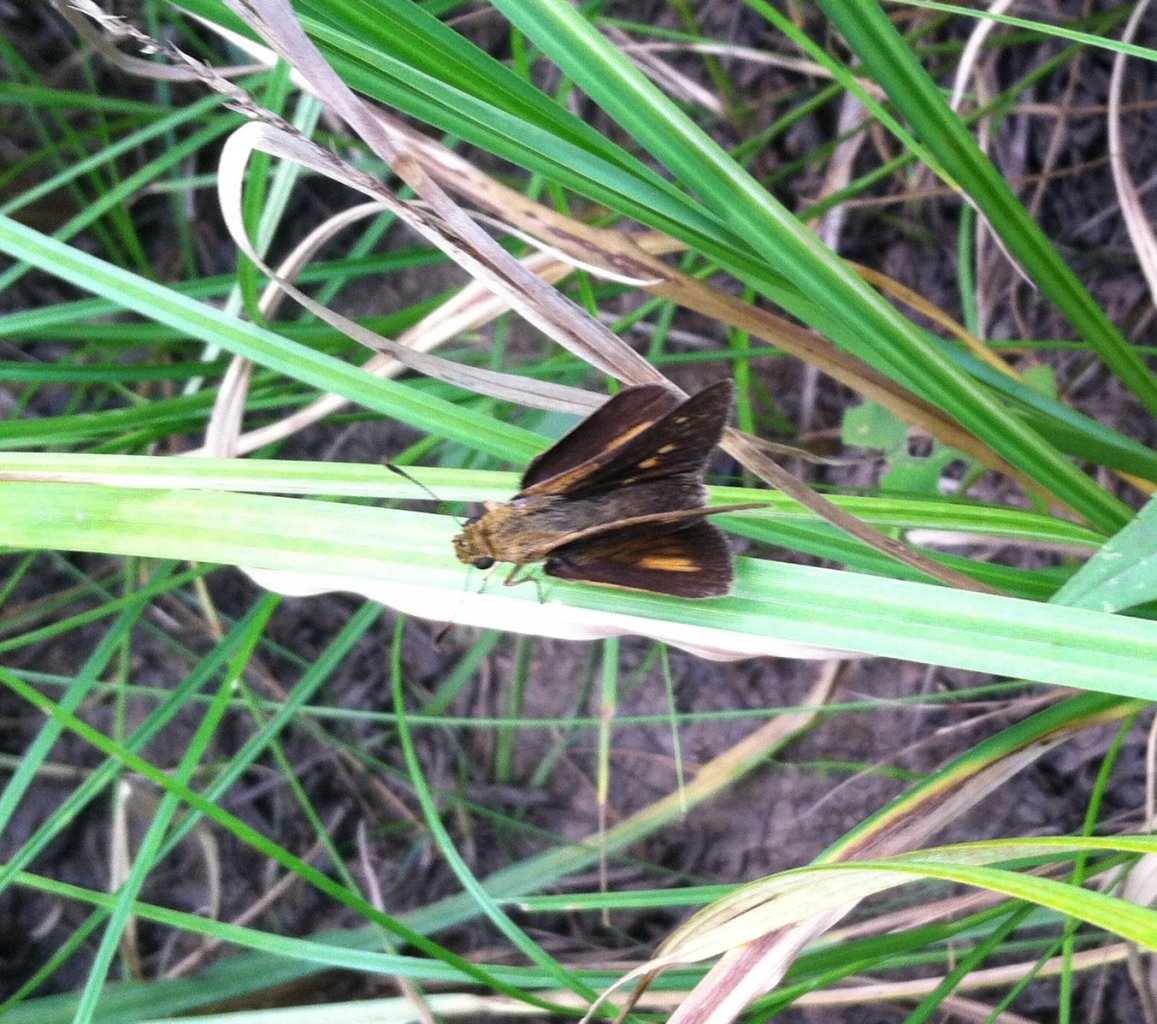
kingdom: Animalia
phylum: Arthropoda
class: Insecta
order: Lepidoptera
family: Hesperiidae
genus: Euphyes
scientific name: Euphyes dion
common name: Dion Skipper
